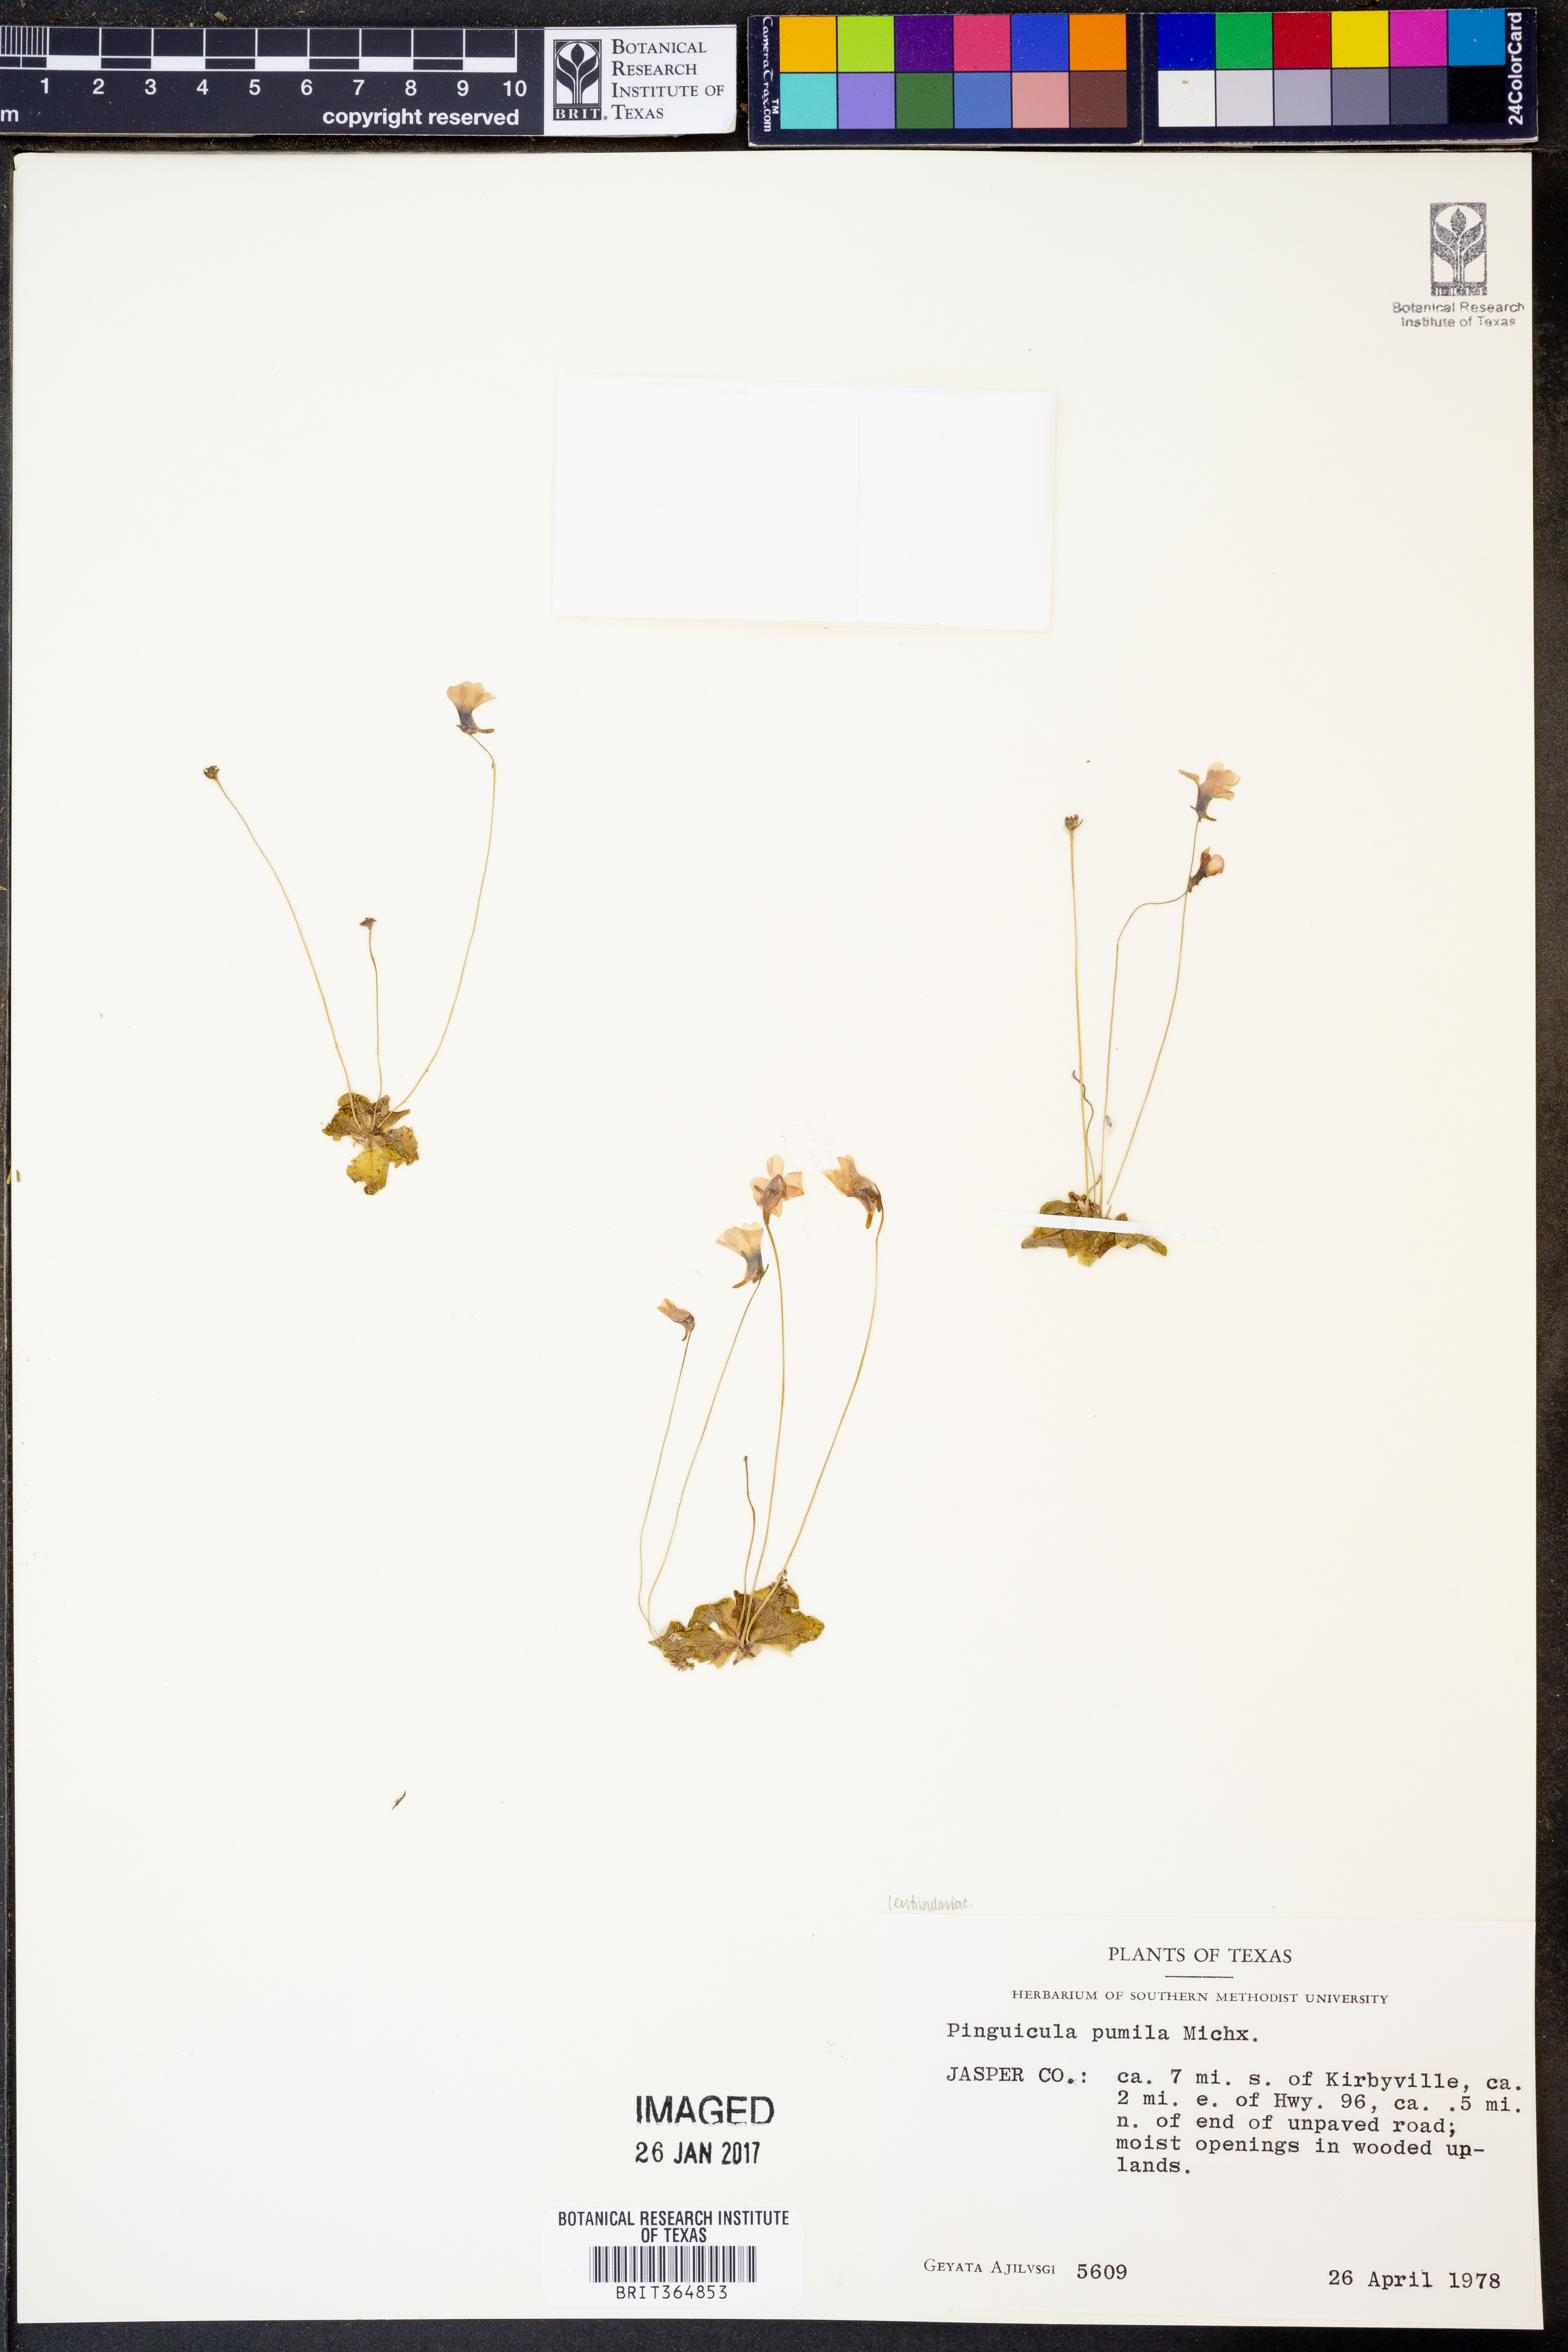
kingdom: Plantae
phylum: Tracheophyta
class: Magnoliopsida
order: Lamiales
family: Lentibulariaceae
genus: Pinguicula
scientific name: Pinguicula pumila
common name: Small butterwort
